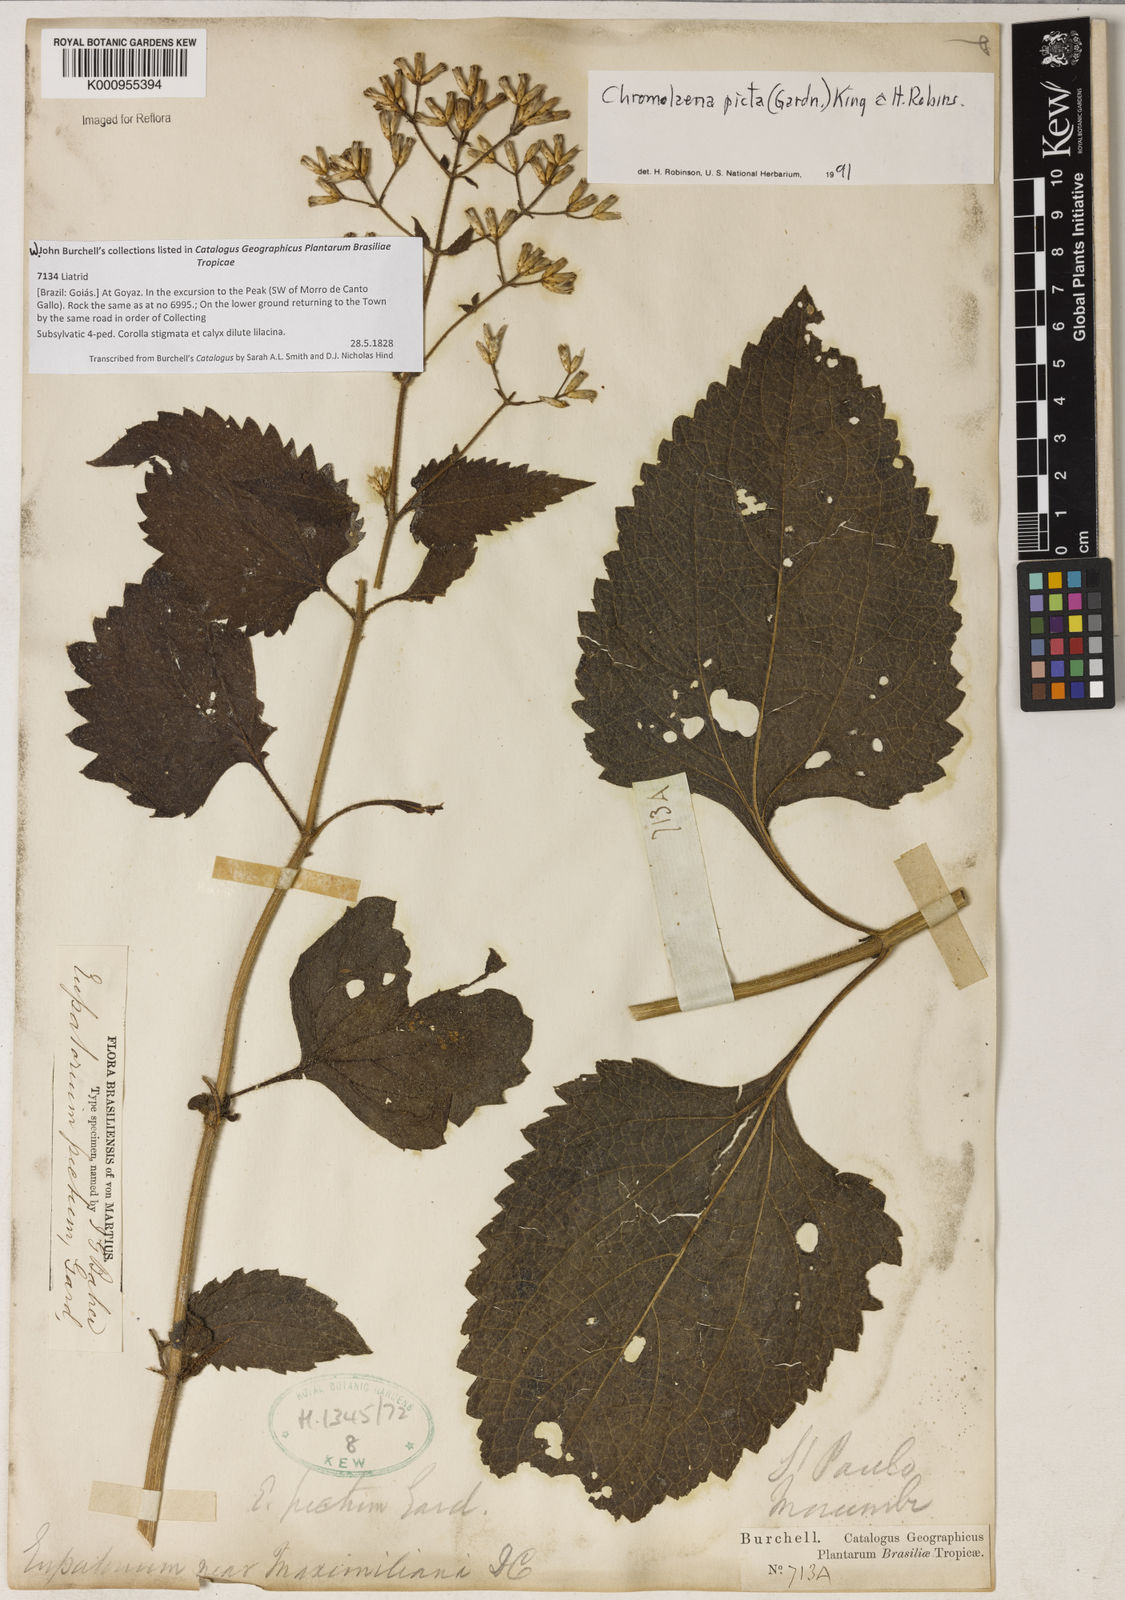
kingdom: Plantae
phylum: Tracheophyta
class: Magnoliopsida
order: Asterales
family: Asteraceae
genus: Chromolaena
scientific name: Chromolaena picta
